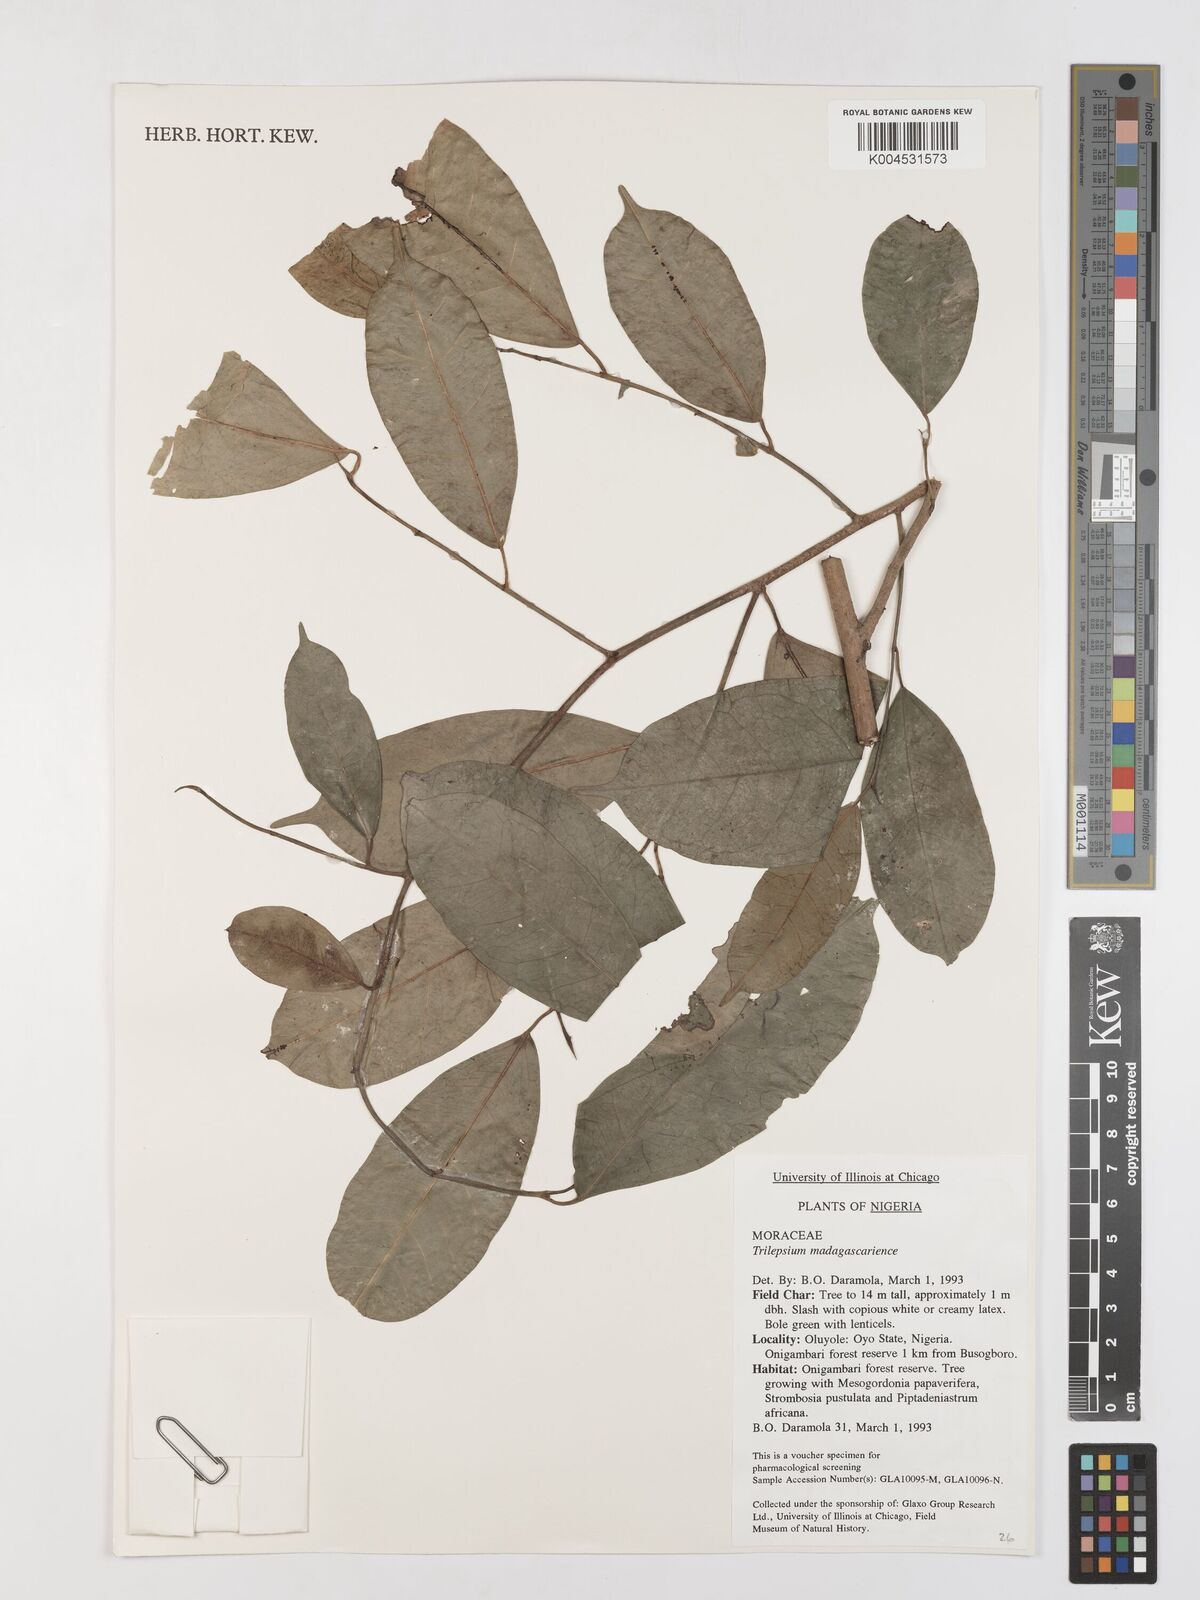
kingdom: Plantae
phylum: Tracheophyta
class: Magnoliopsida
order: Rosales
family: Moraceae
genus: Trilepisium
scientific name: Trilepisium madagascariense
